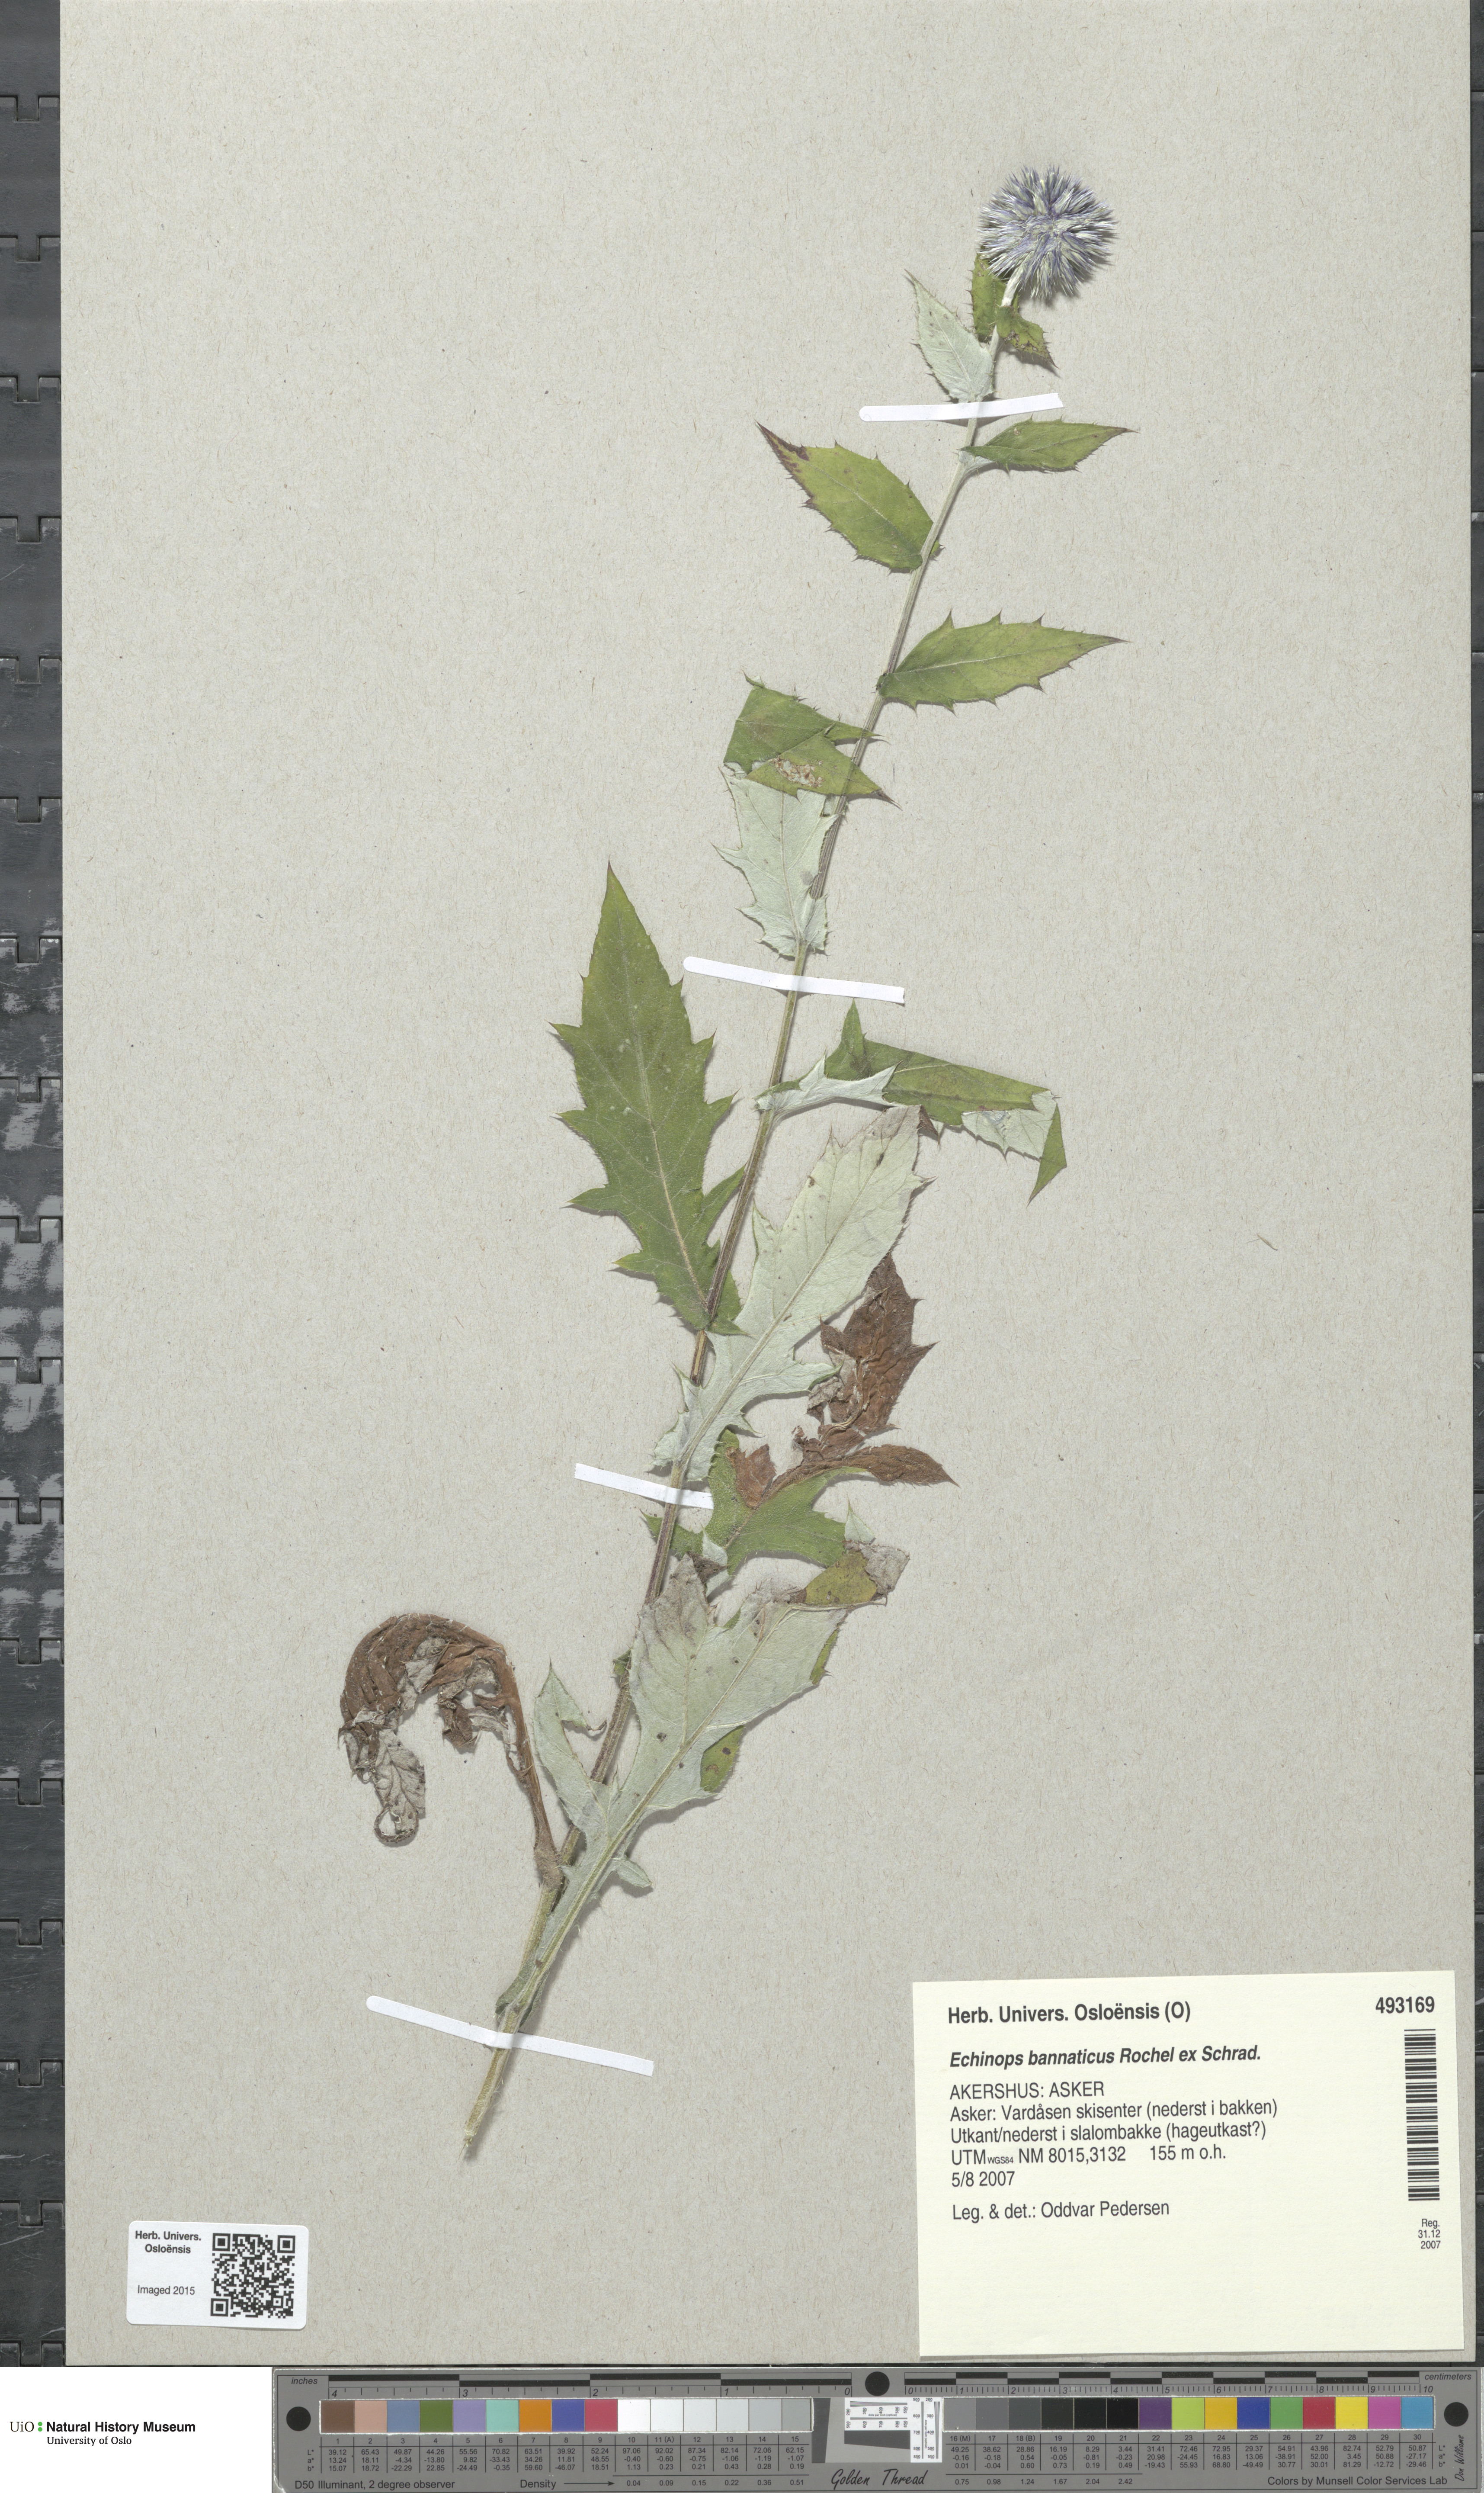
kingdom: Plantae
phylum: Tracheophyta
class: Magnoliopsida
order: Asterales
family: Asteraceae
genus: Echinops
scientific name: Echinops bannaticus
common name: Blue globe-thistle
